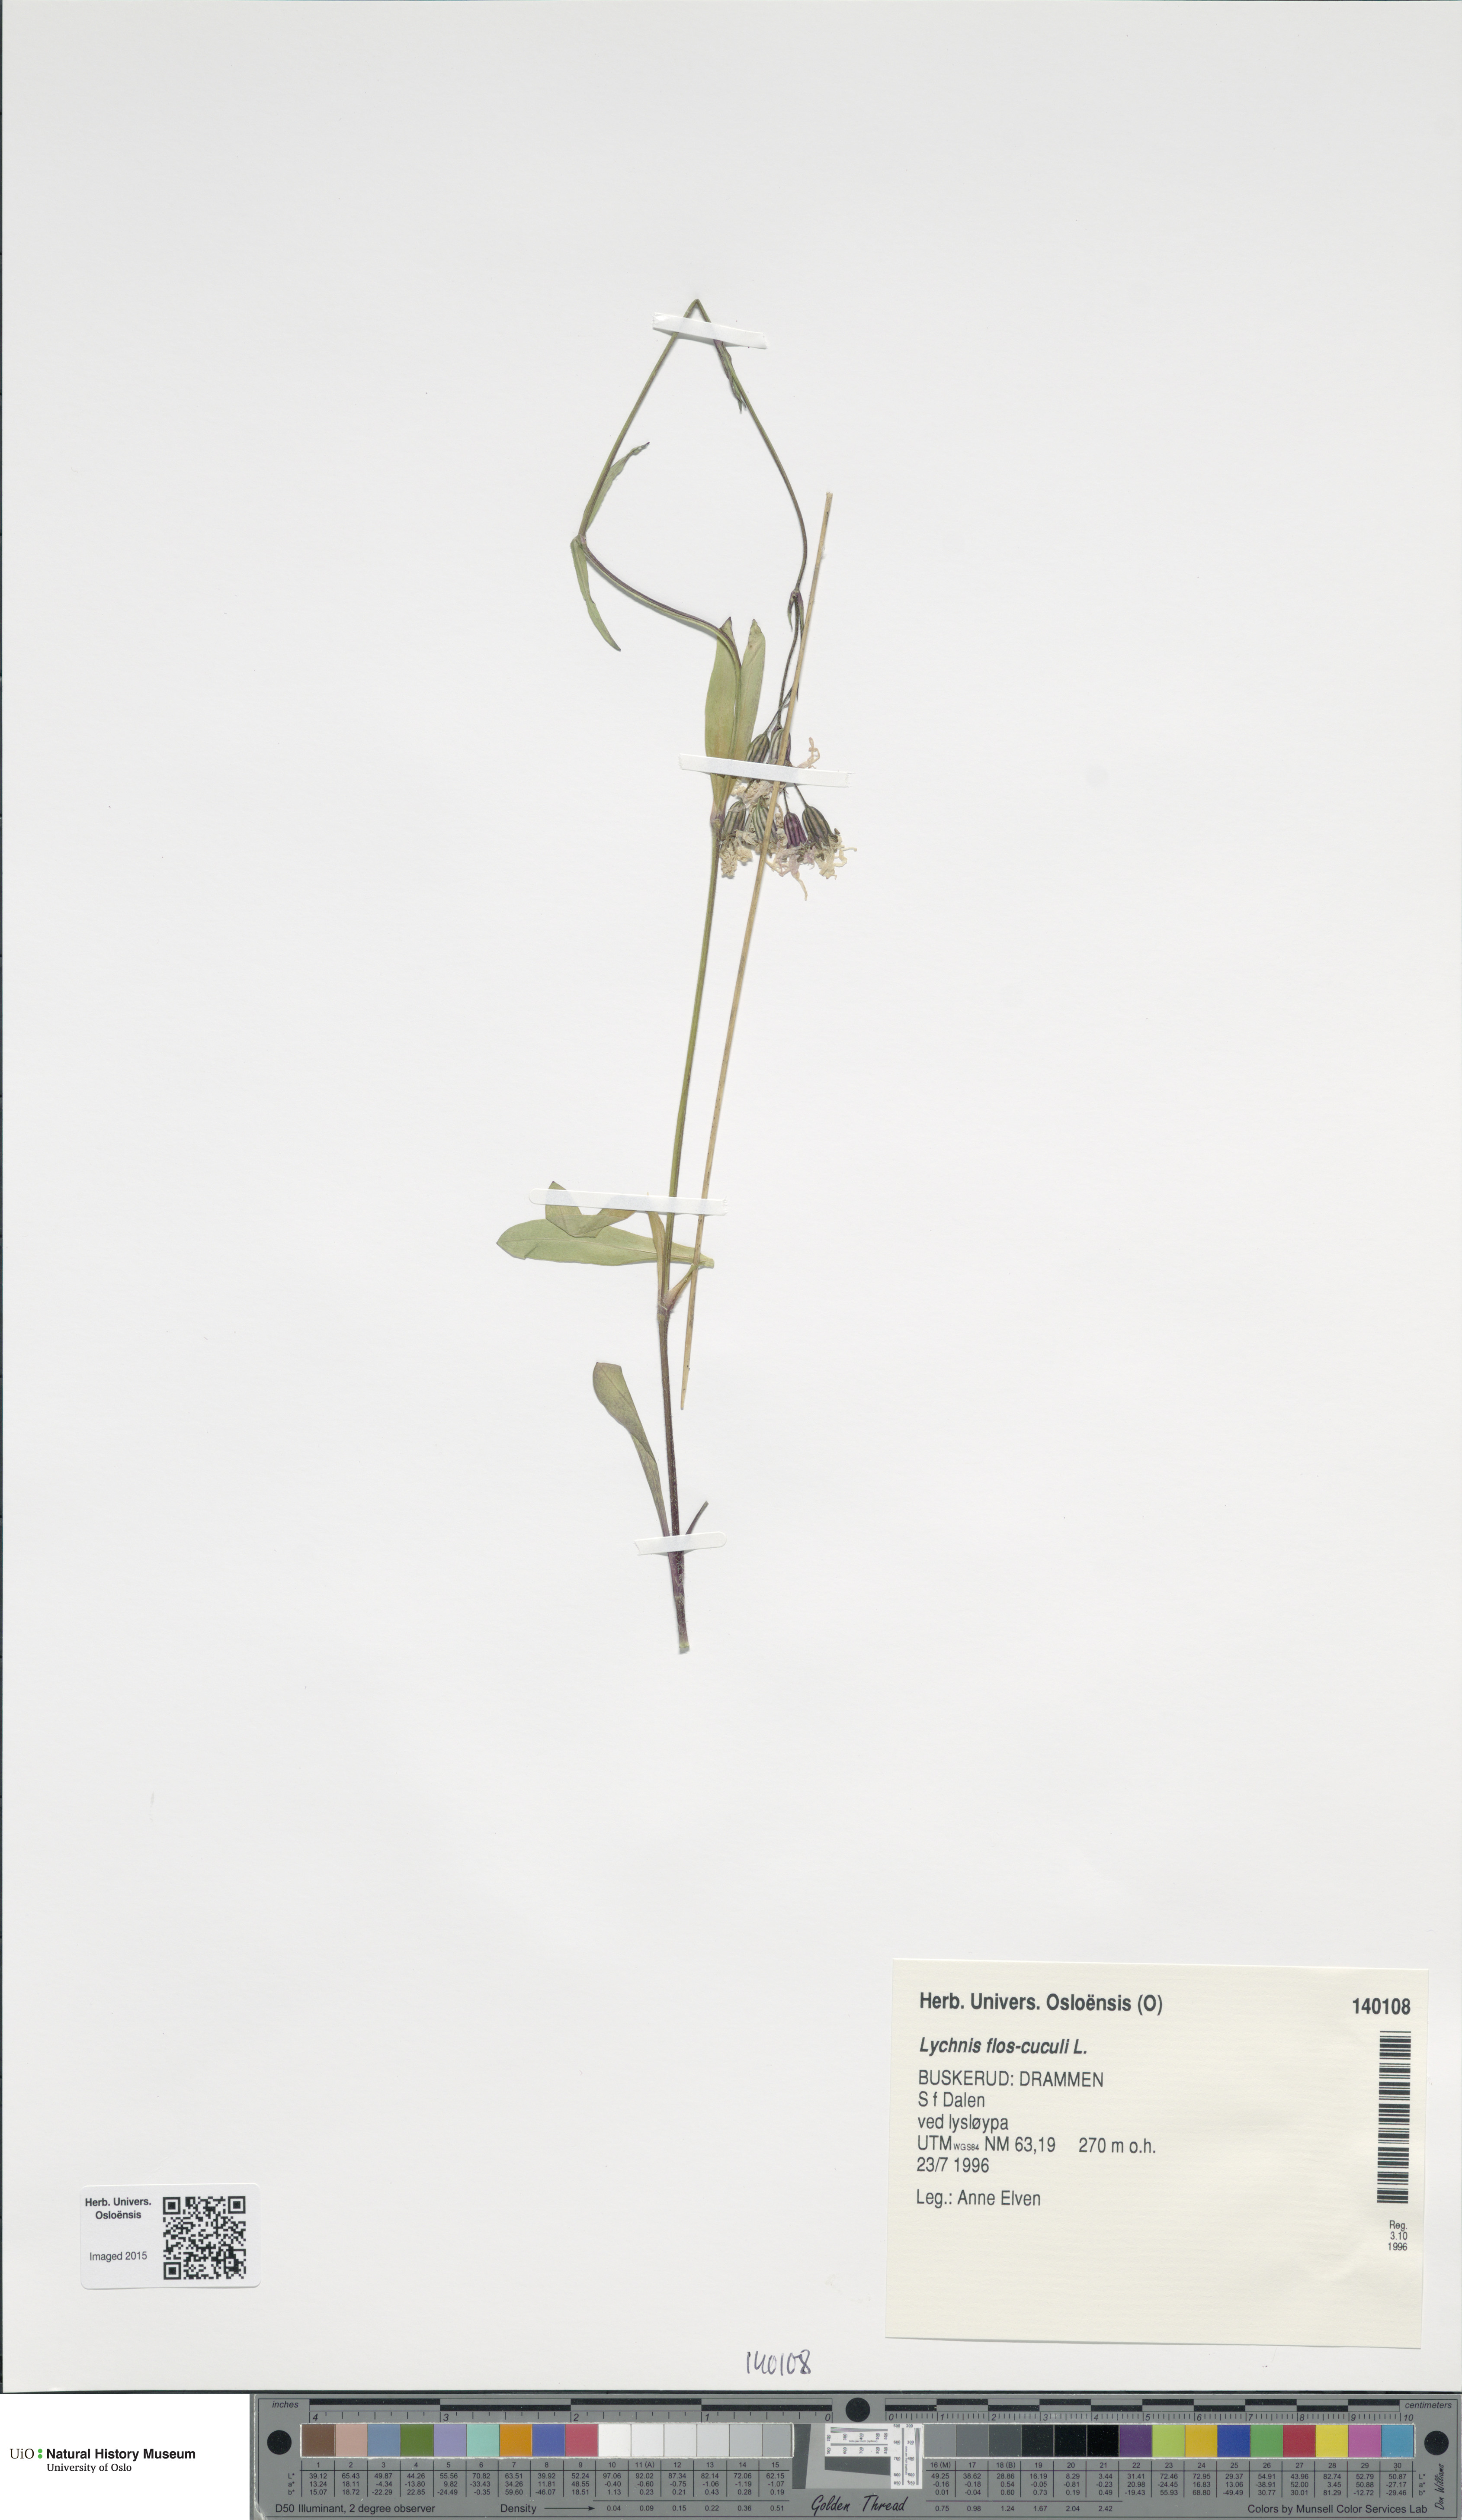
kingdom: Plantae
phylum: Tracheophyta
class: Magnoliopsida
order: Caryophyllales
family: Caryophyllaceae
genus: Silene
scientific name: Silene flos-cuculi
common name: Ragged-robin
